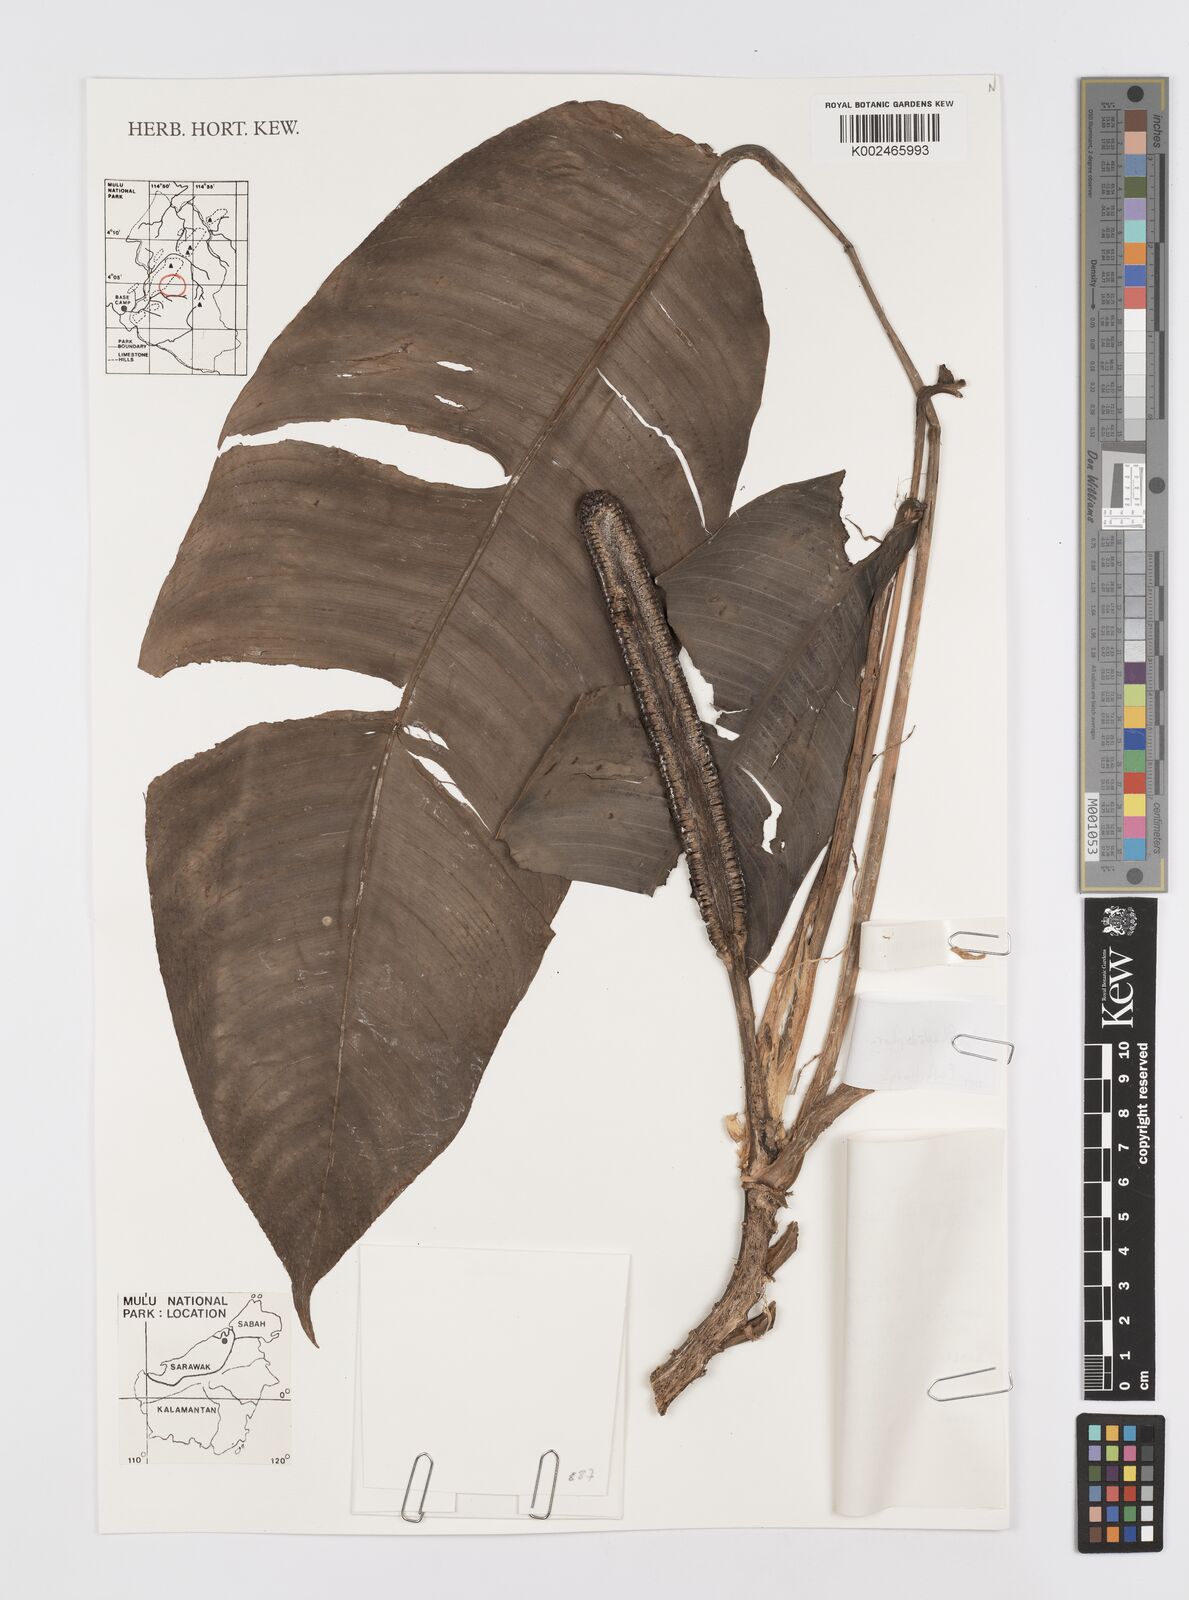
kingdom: Plantae
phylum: Tracheophyta
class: Liliopsida
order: Alismatales
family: Araceae
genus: Rhaphidophora
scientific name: Rhaphidophora puberula
